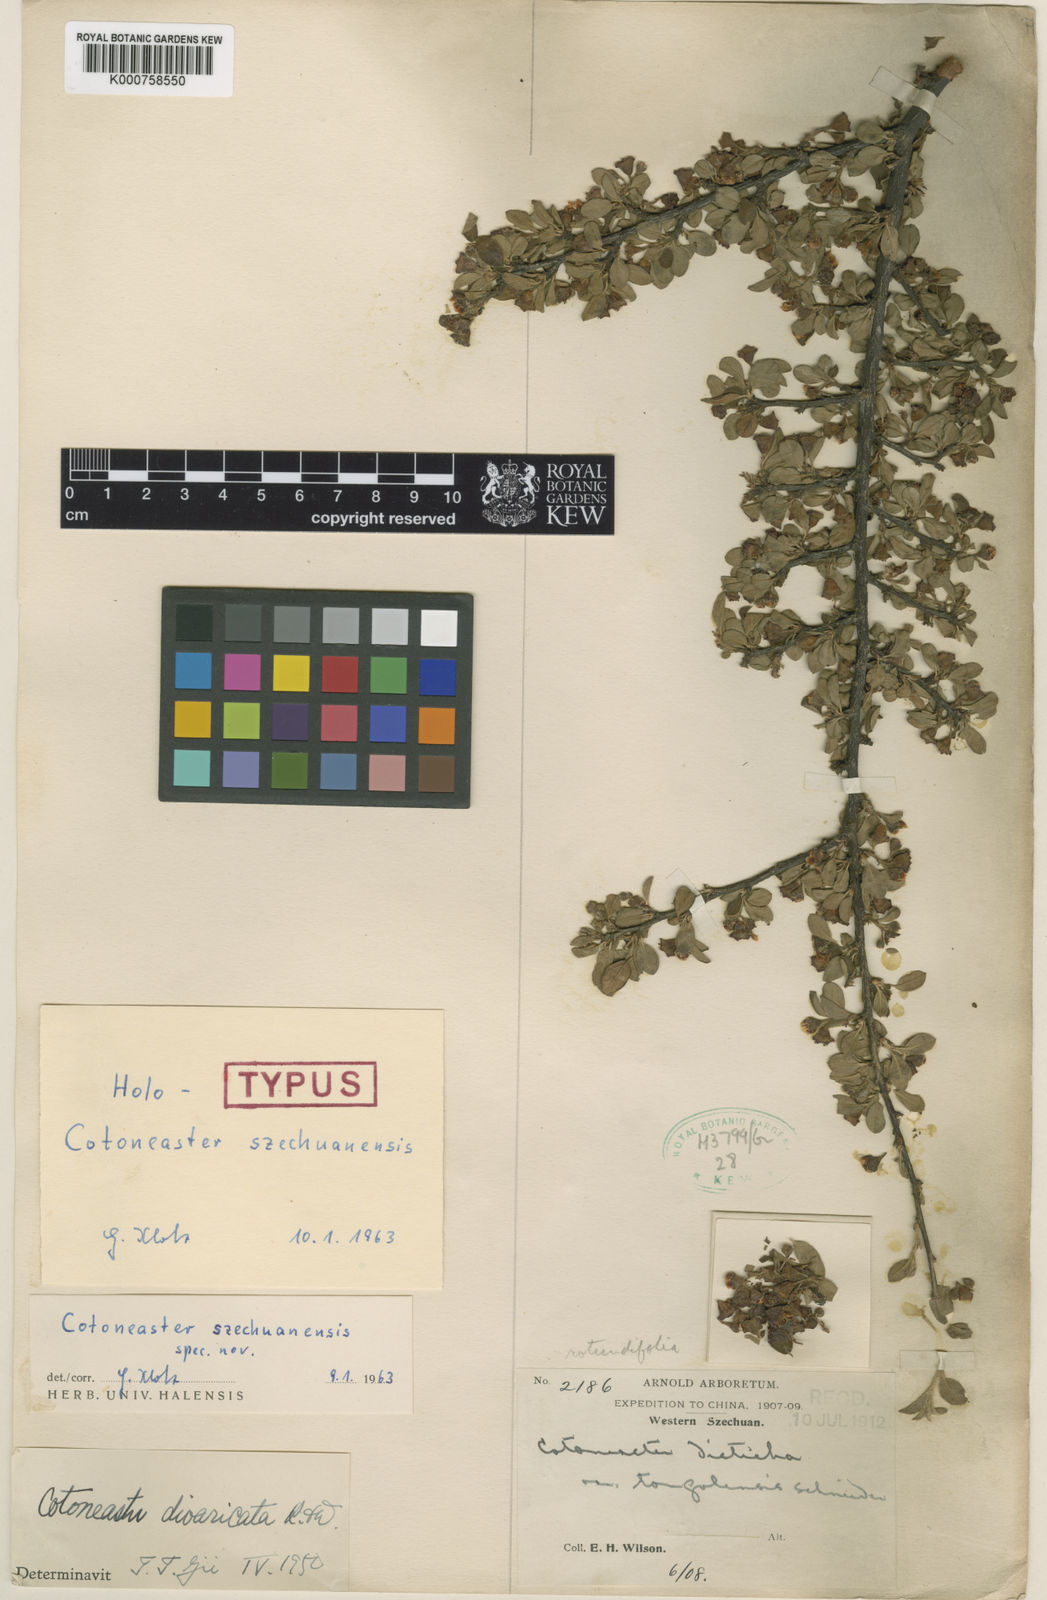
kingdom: Plantae
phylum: Tracheophyta
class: Magnoliopsida
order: Rosales
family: Rosaceae
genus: Cotoneaster
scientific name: Cotoneaster divaricatus
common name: Spreading cotoneaster
